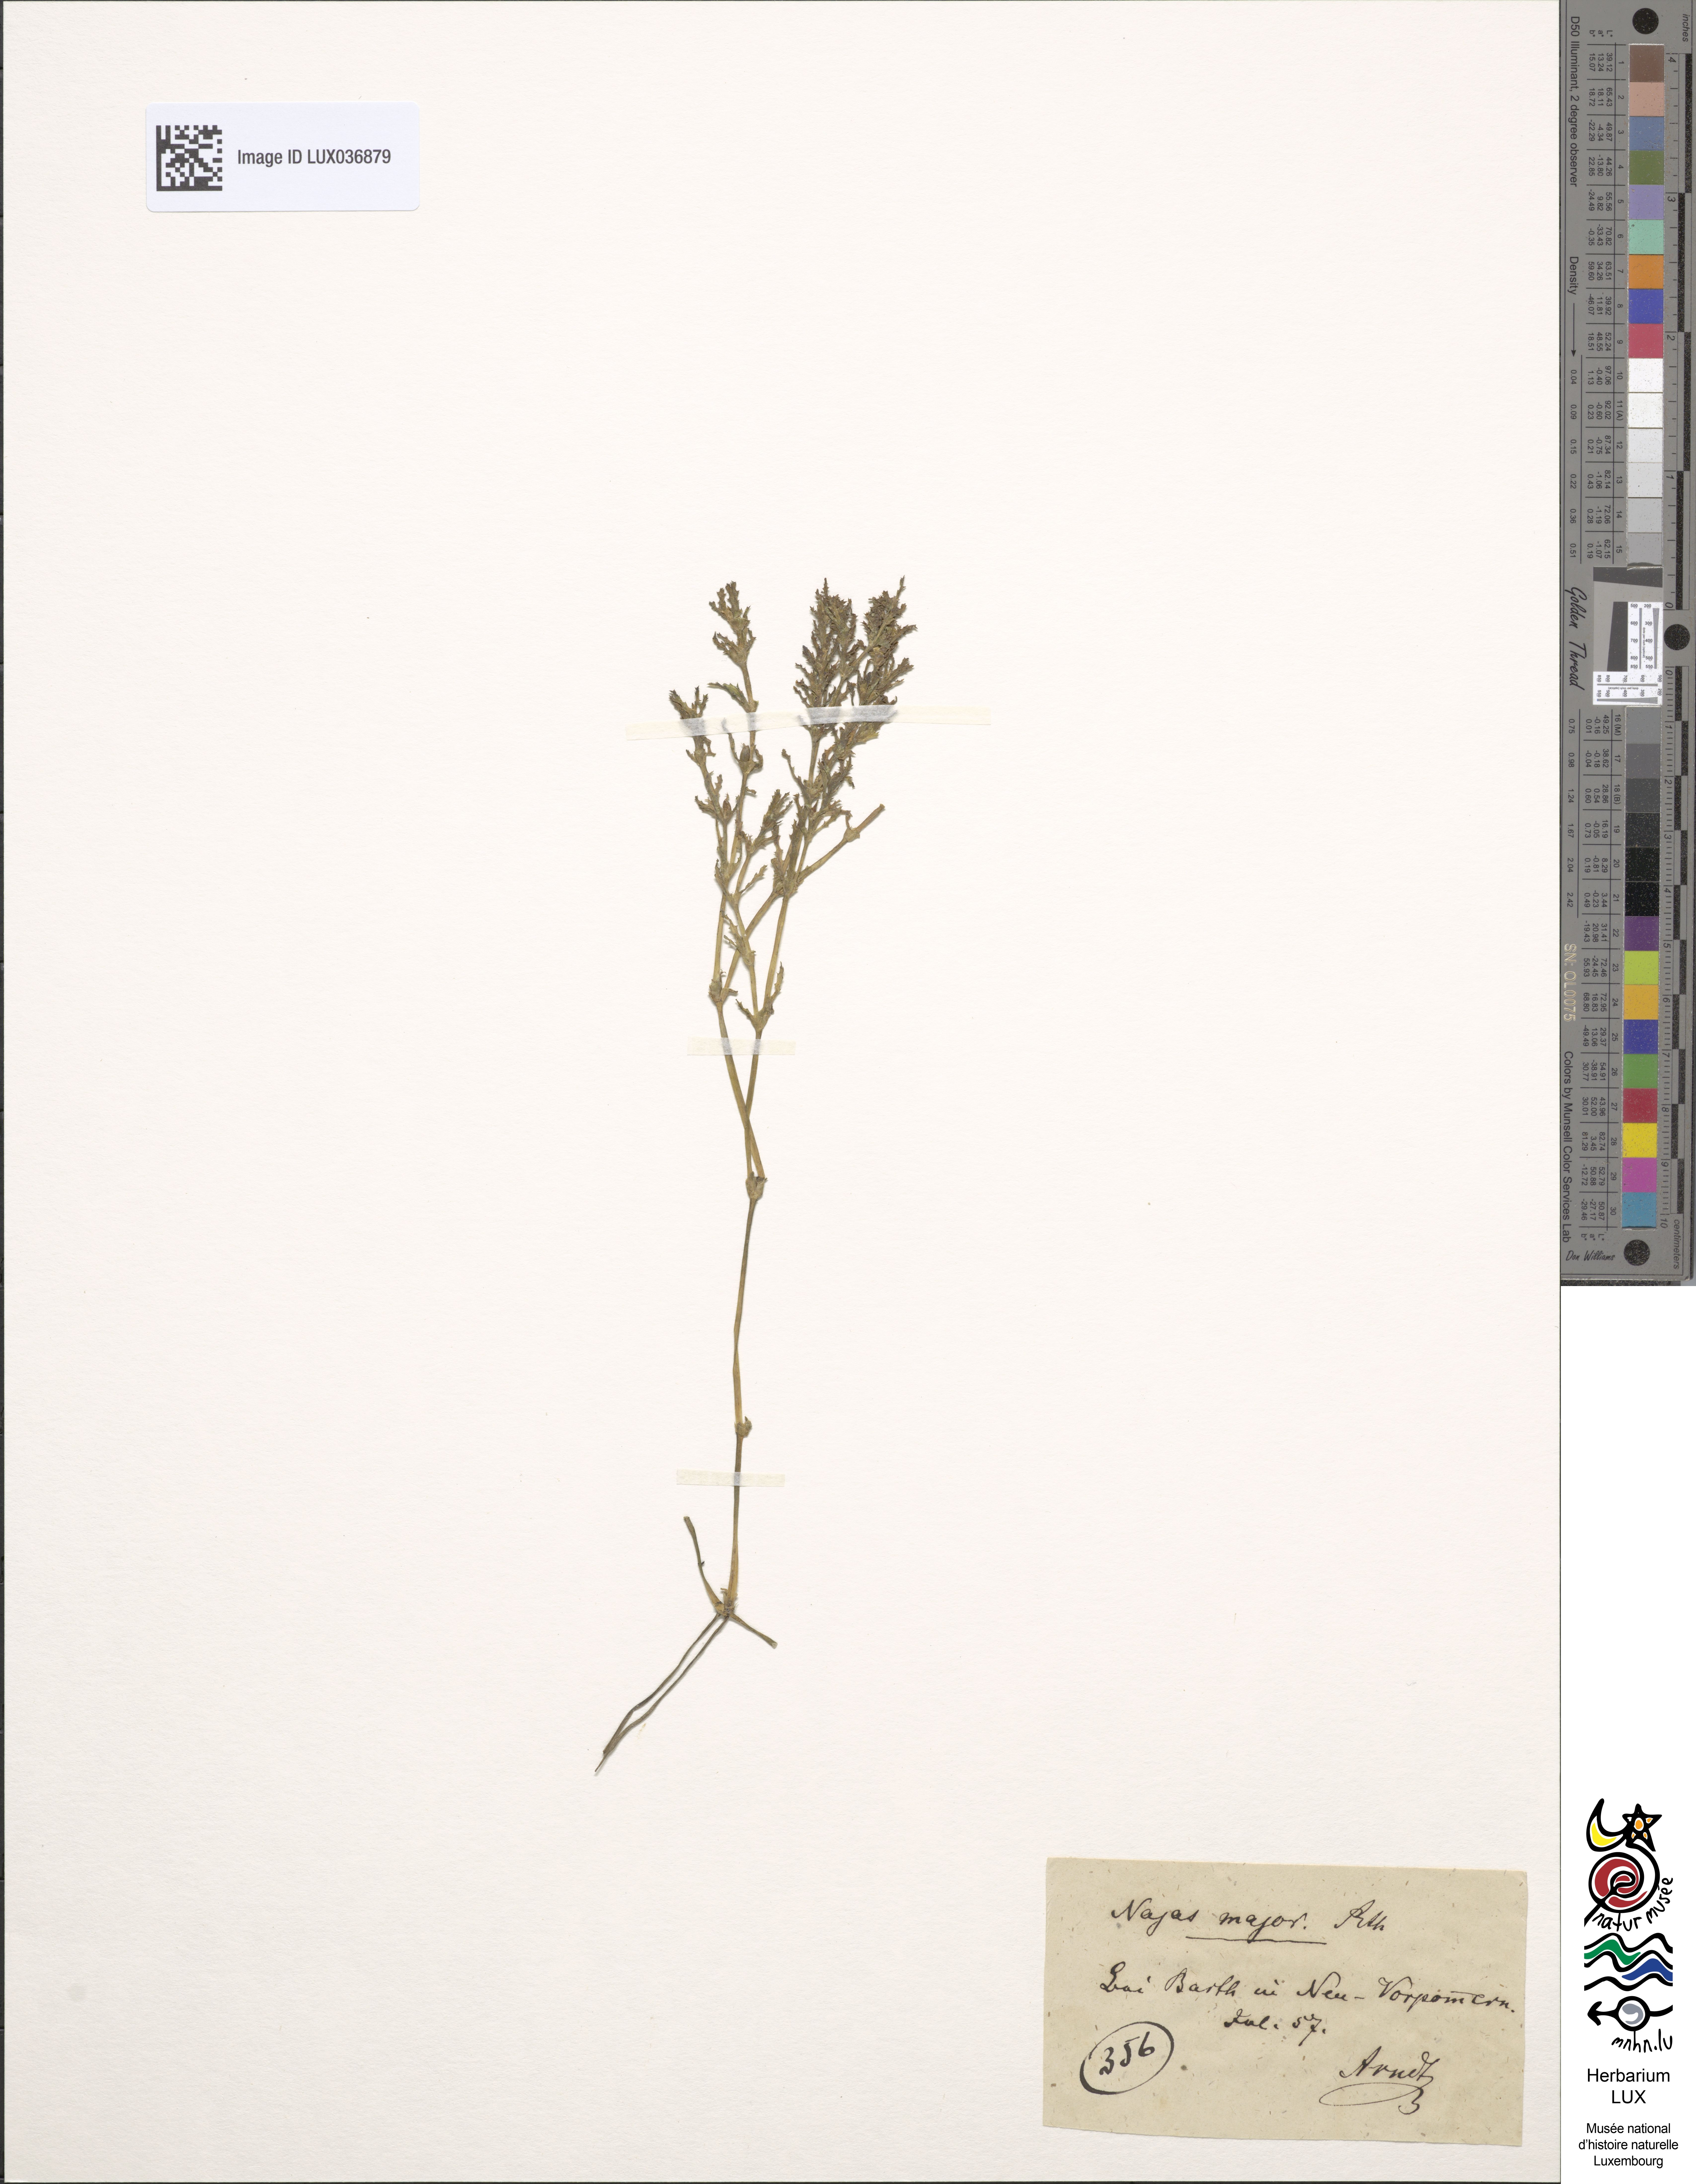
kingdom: Plantae
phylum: Tracheophyta
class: Liliopsida
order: Alismatales
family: Hydrocharitaceae
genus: Najas
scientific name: Najas marina
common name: Holly-leaved naiad
